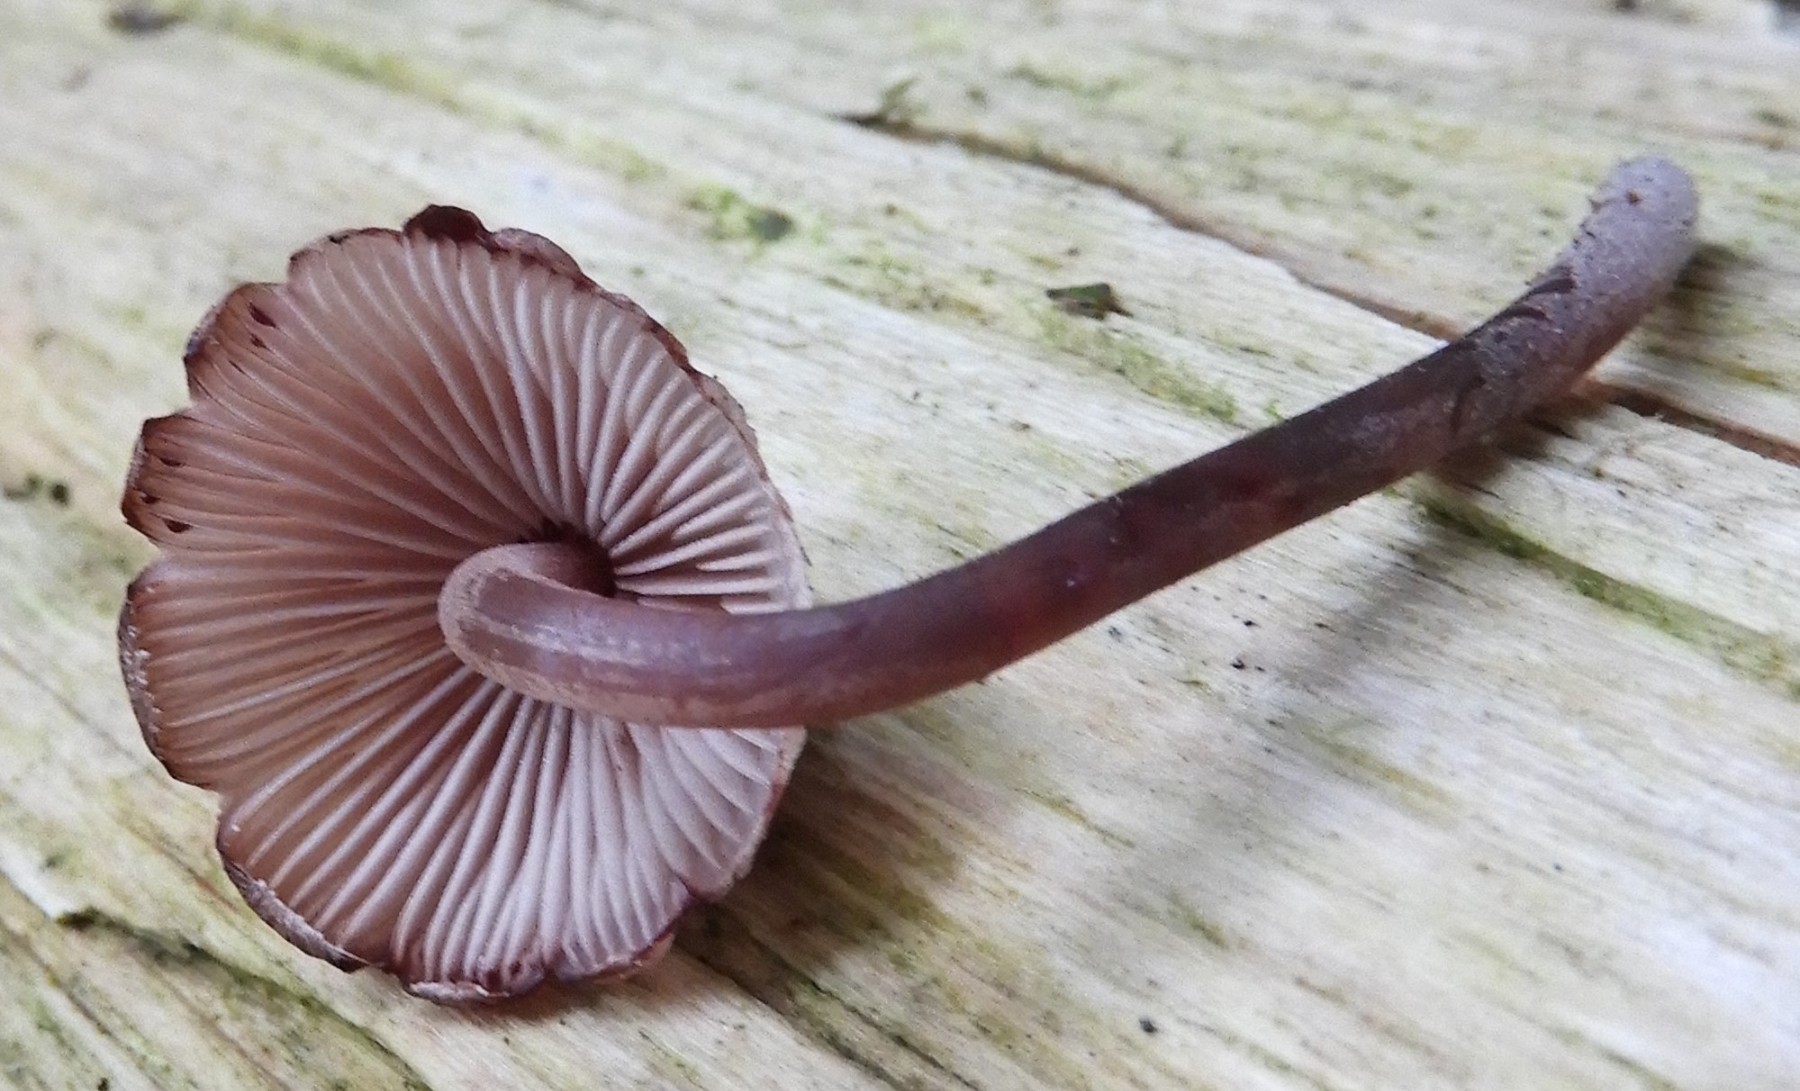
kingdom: Fungi
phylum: Basidiomycota
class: Agaricomycetes
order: Agaricales
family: Mycenaceae
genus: Mycena
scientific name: Mycena haematopus
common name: blødende huesvamp
